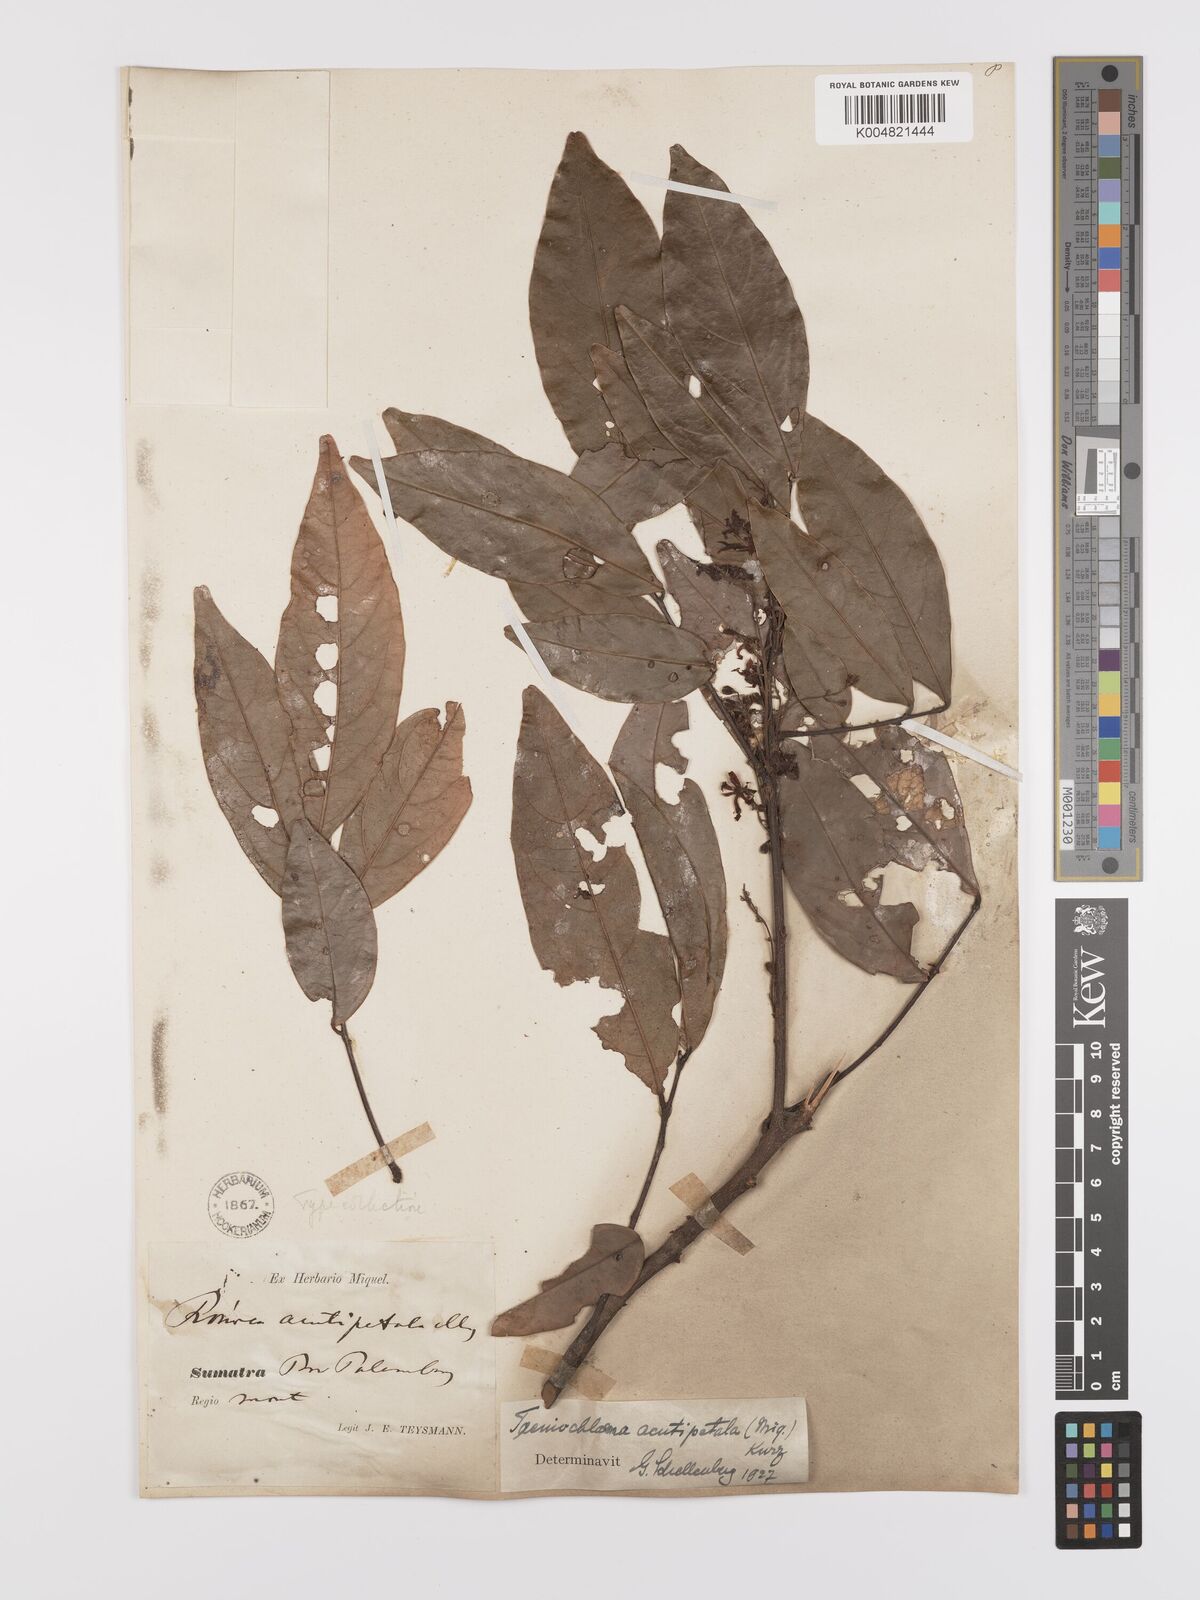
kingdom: Plantae
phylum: Tracheophyta
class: Magnoliopsida
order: Oxalidales
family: Connaraceae
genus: Rourea
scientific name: Rourea acutipetala
